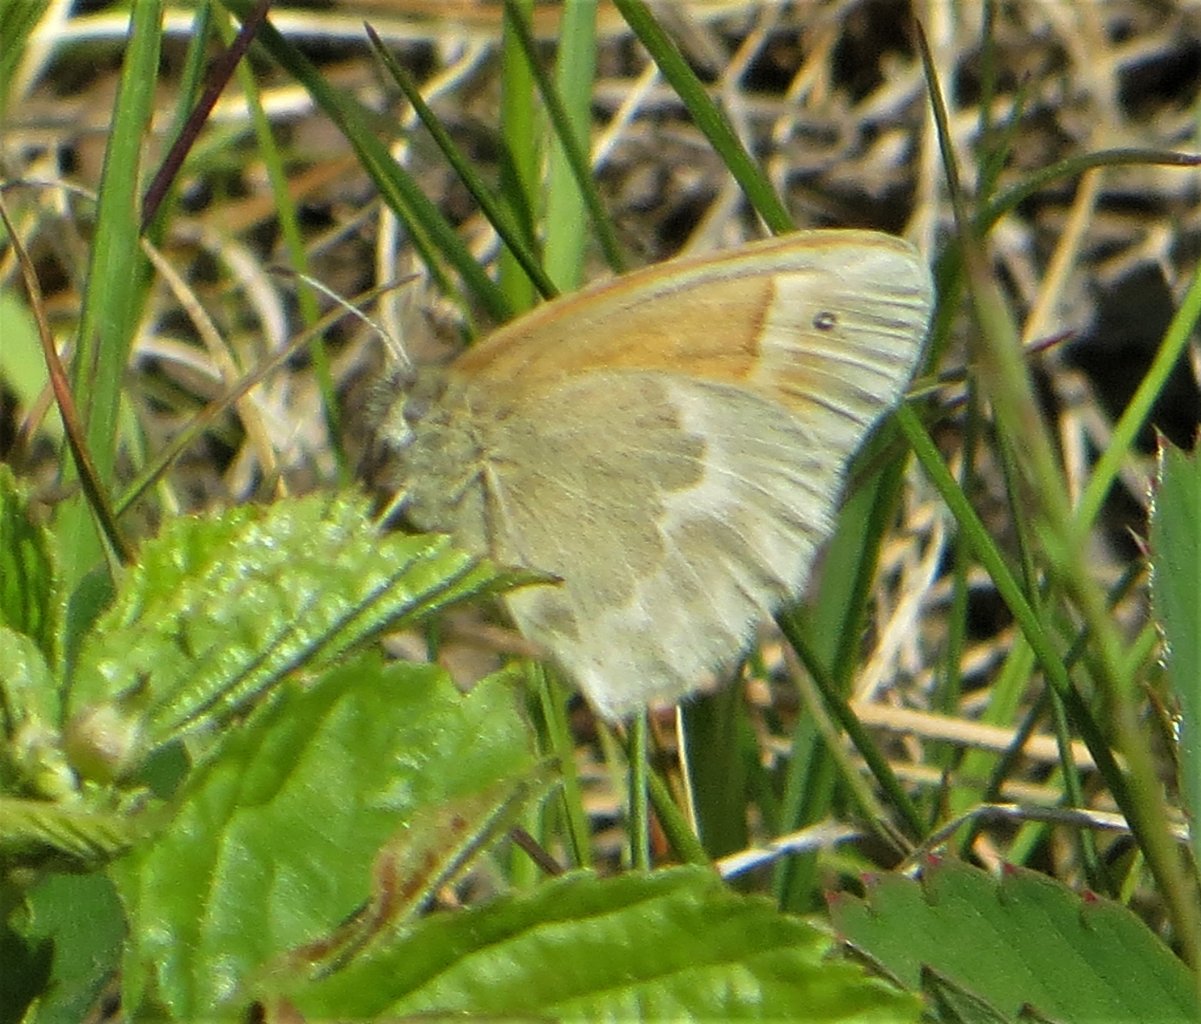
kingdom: Animalia
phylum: Arthropoda
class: Insecta
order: Lepidoptera
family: Nymphalidae
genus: Coenonympha
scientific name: Coenonympha tullia
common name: Large Heath
